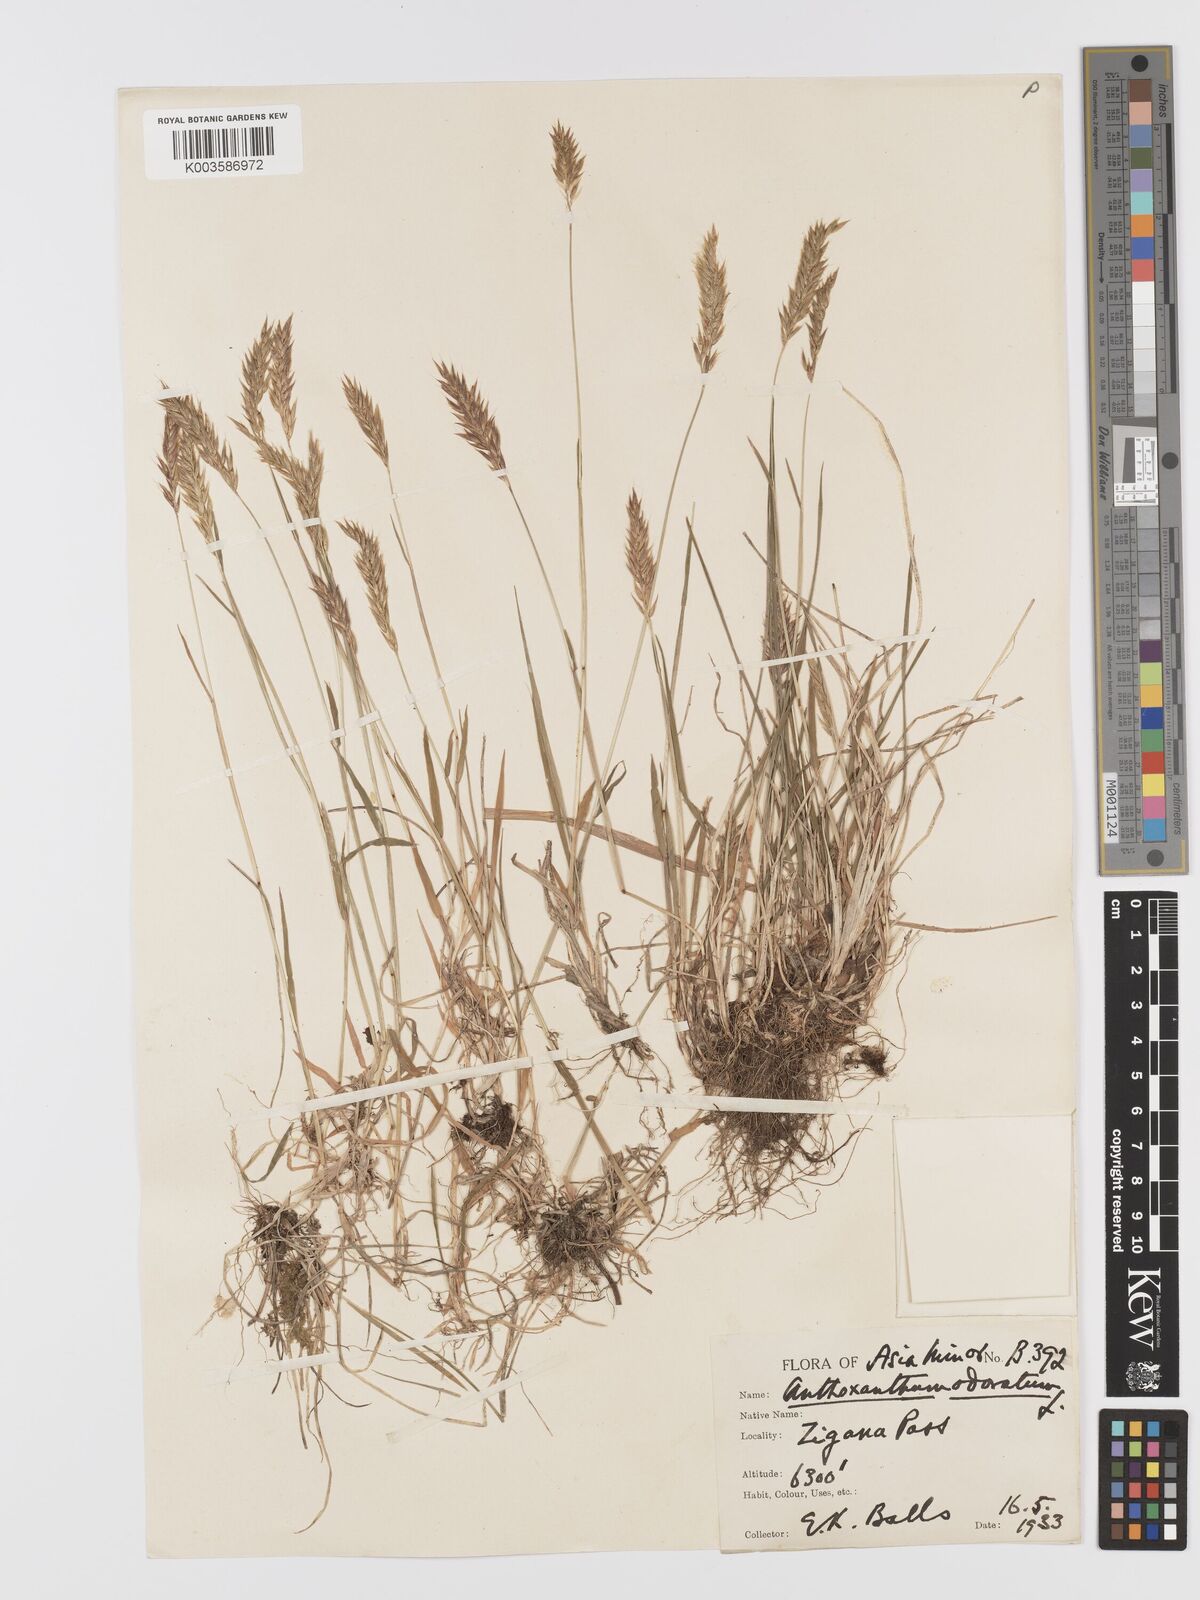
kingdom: Plantae
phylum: Tracheophyta
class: Liliopsida
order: Poales
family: Poaceae
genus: Anthoxanthum
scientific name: Anthoxanthum odoratum
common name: Sweet vernalgrass
